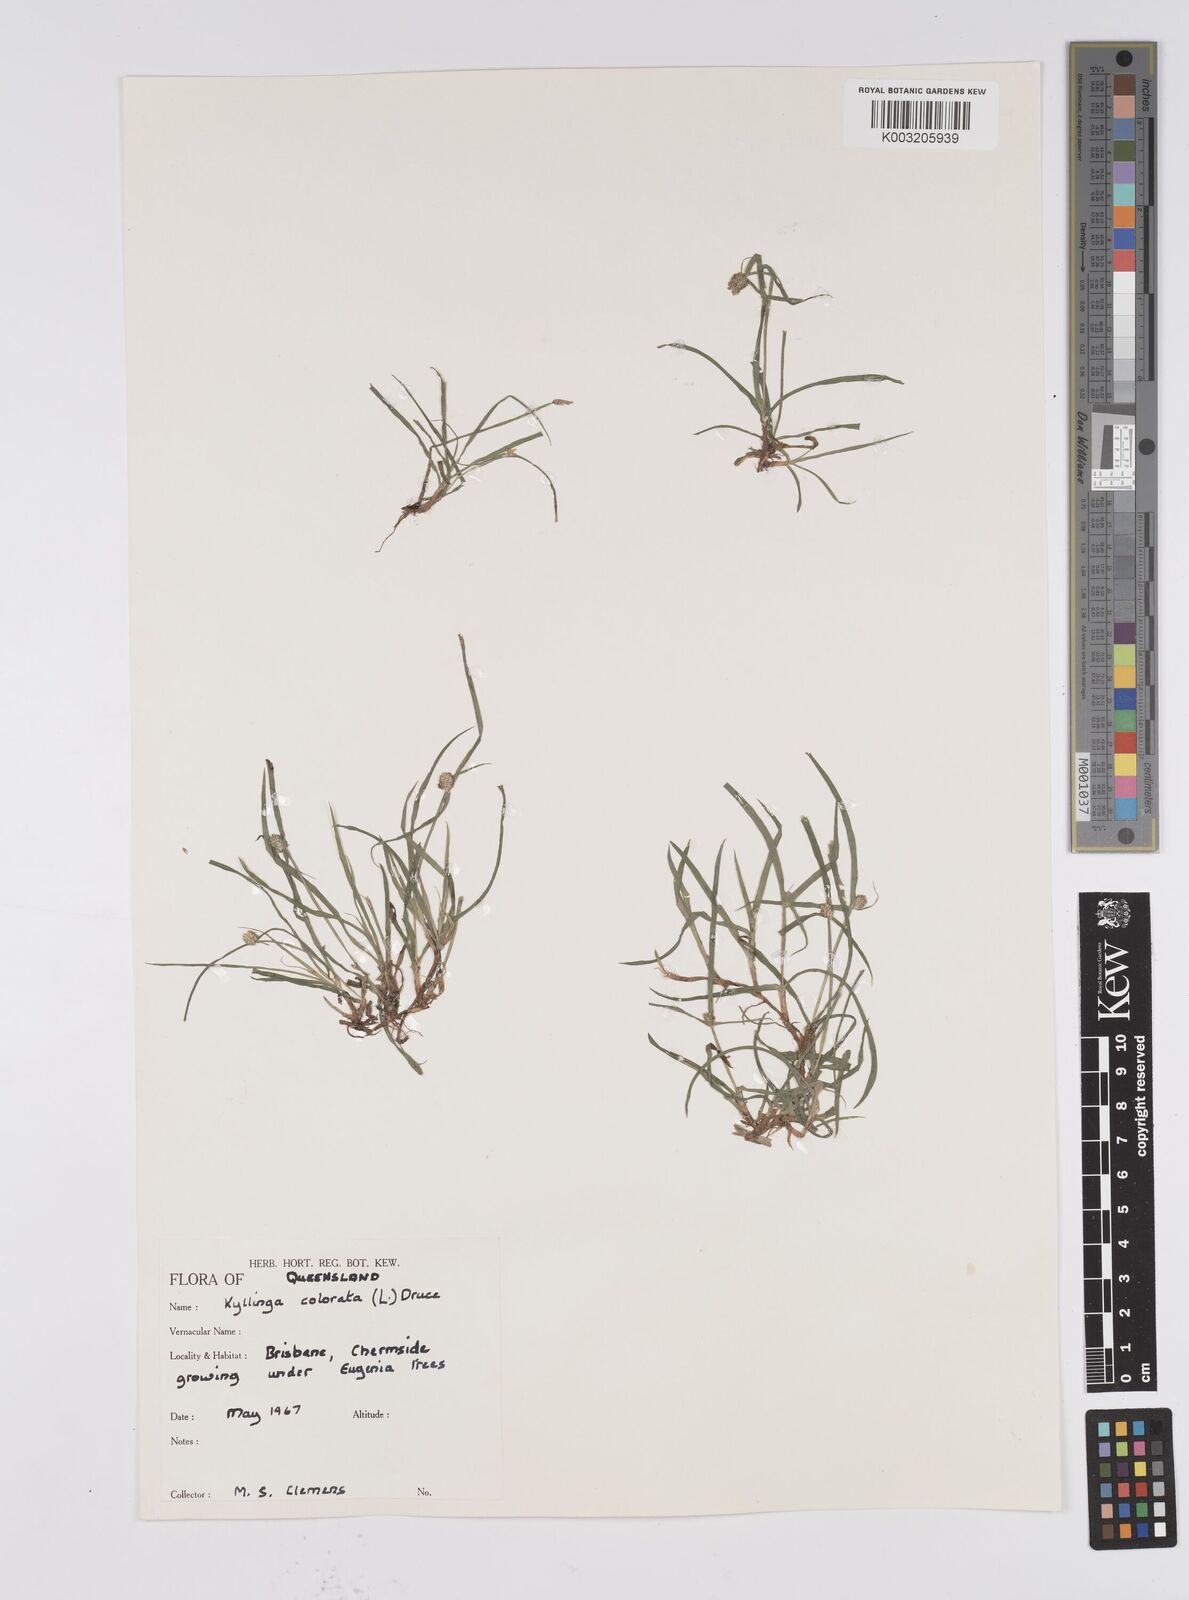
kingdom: Plantae
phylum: Tracheophyta
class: Liliopsida
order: Poales
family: Cyperaceae
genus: Cyperus
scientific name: Cyperus brevifolius
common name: Globe kyllinga
